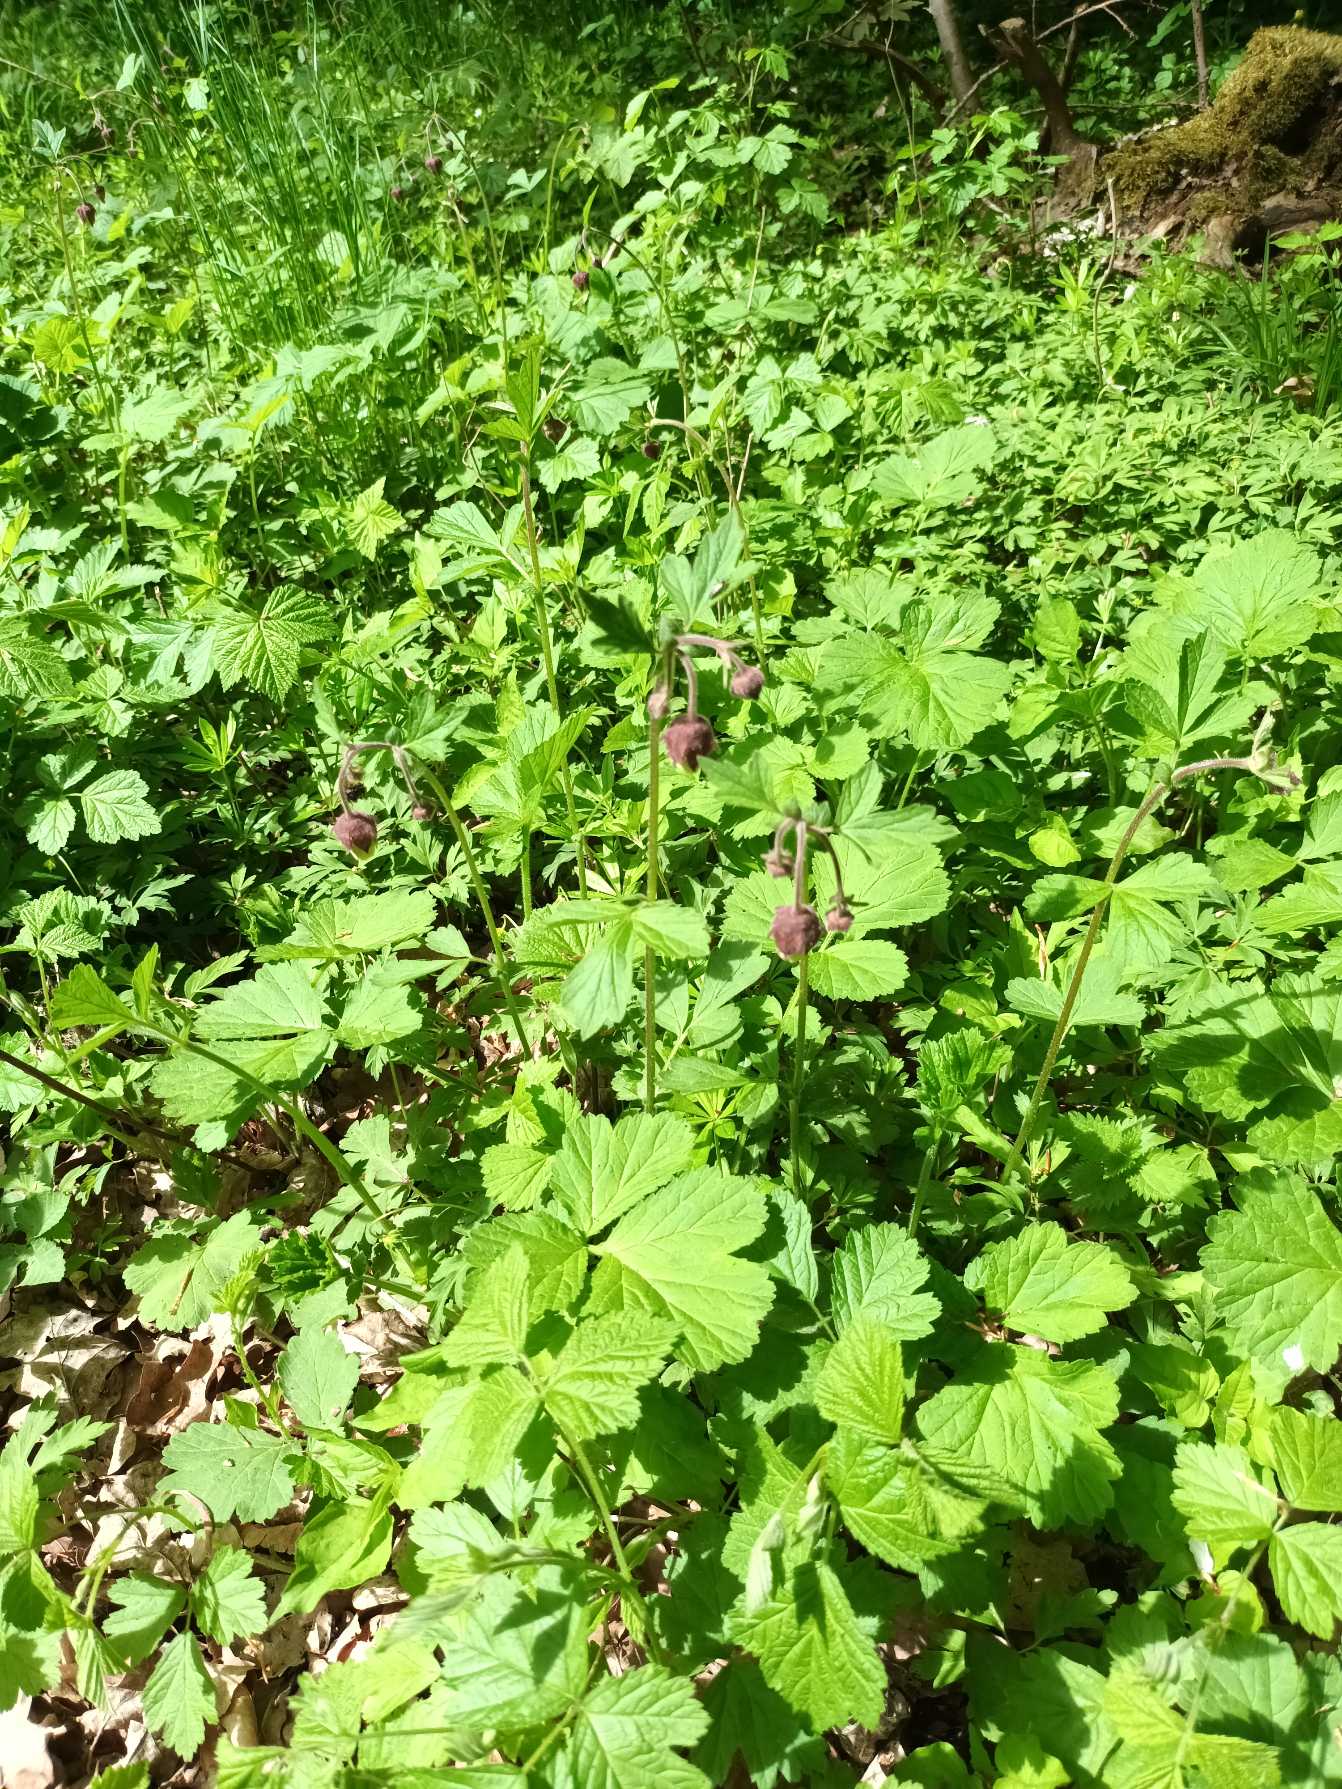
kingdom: Plantae
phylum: Tracheophyta
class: Magnoliopsida
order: Rosales
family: Rosaceae
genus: Geum
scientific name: Geum rivale
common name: Eng-nellikerod
